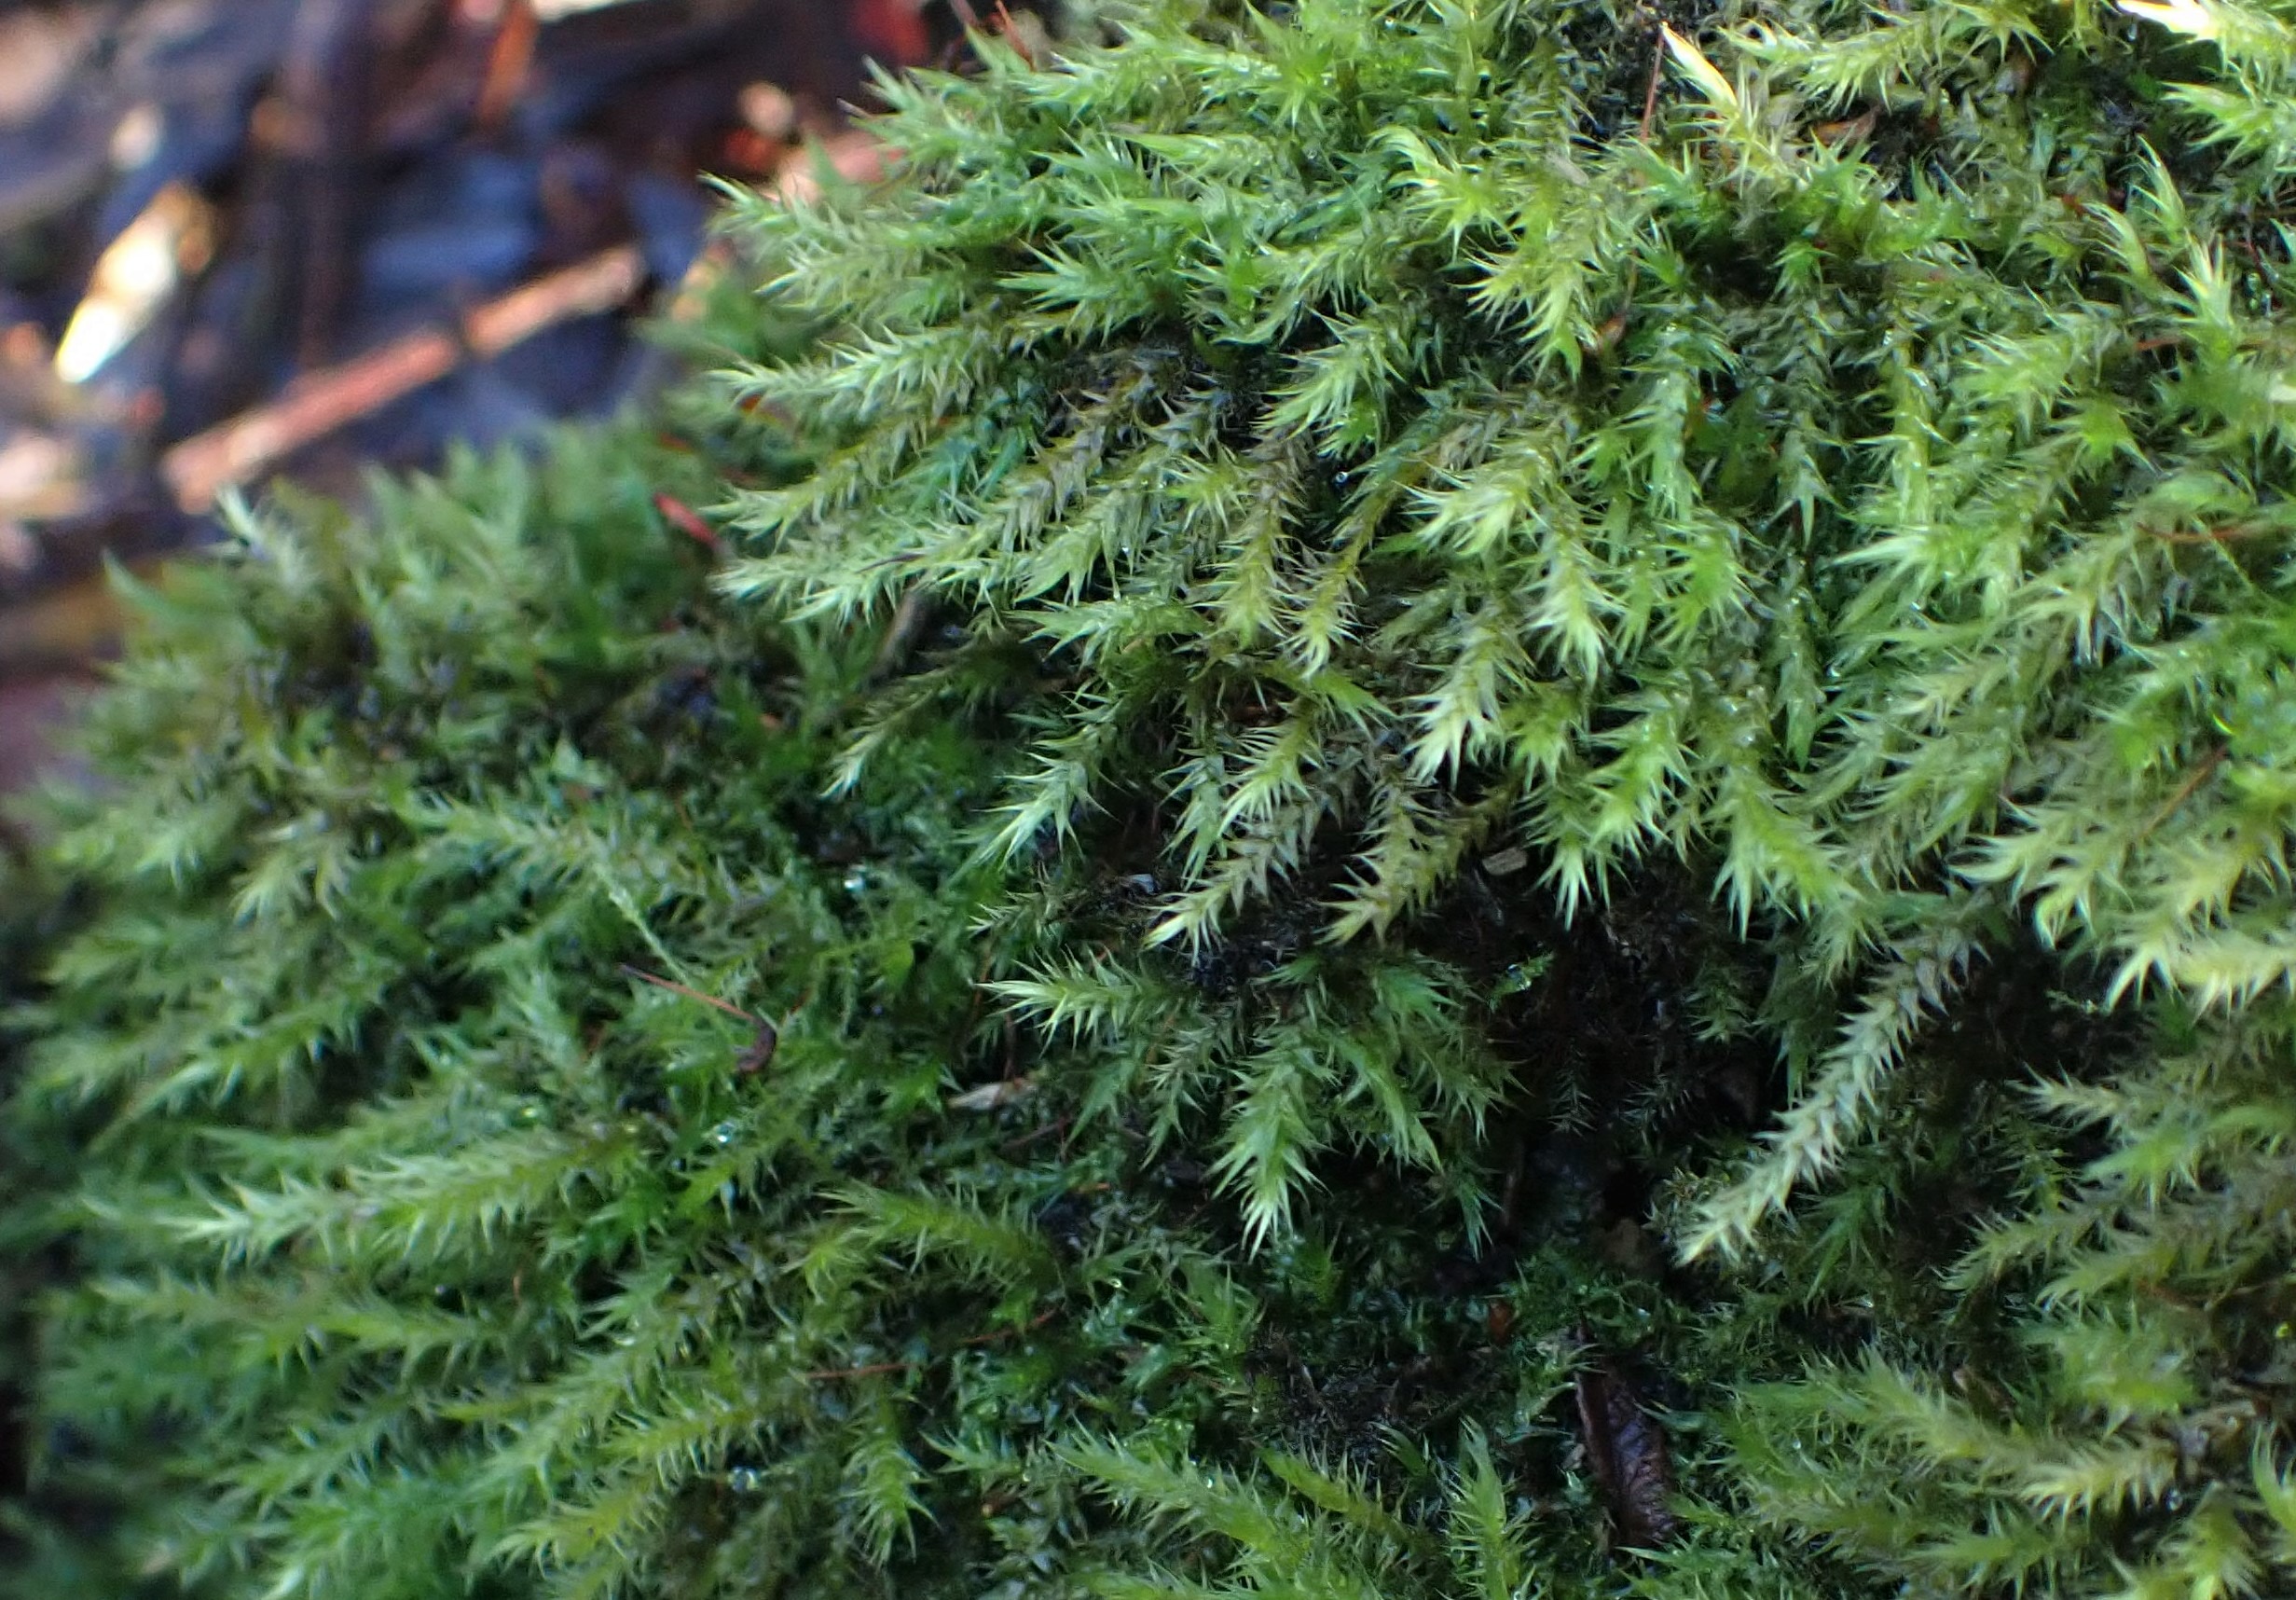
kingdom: Plantae
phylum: Bryophyta
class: Bryopsida
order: Hypnales
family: Amblystegiaceae
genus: Leptodictyum
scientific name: Leptodictyum riparium
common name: Stor pytmos
